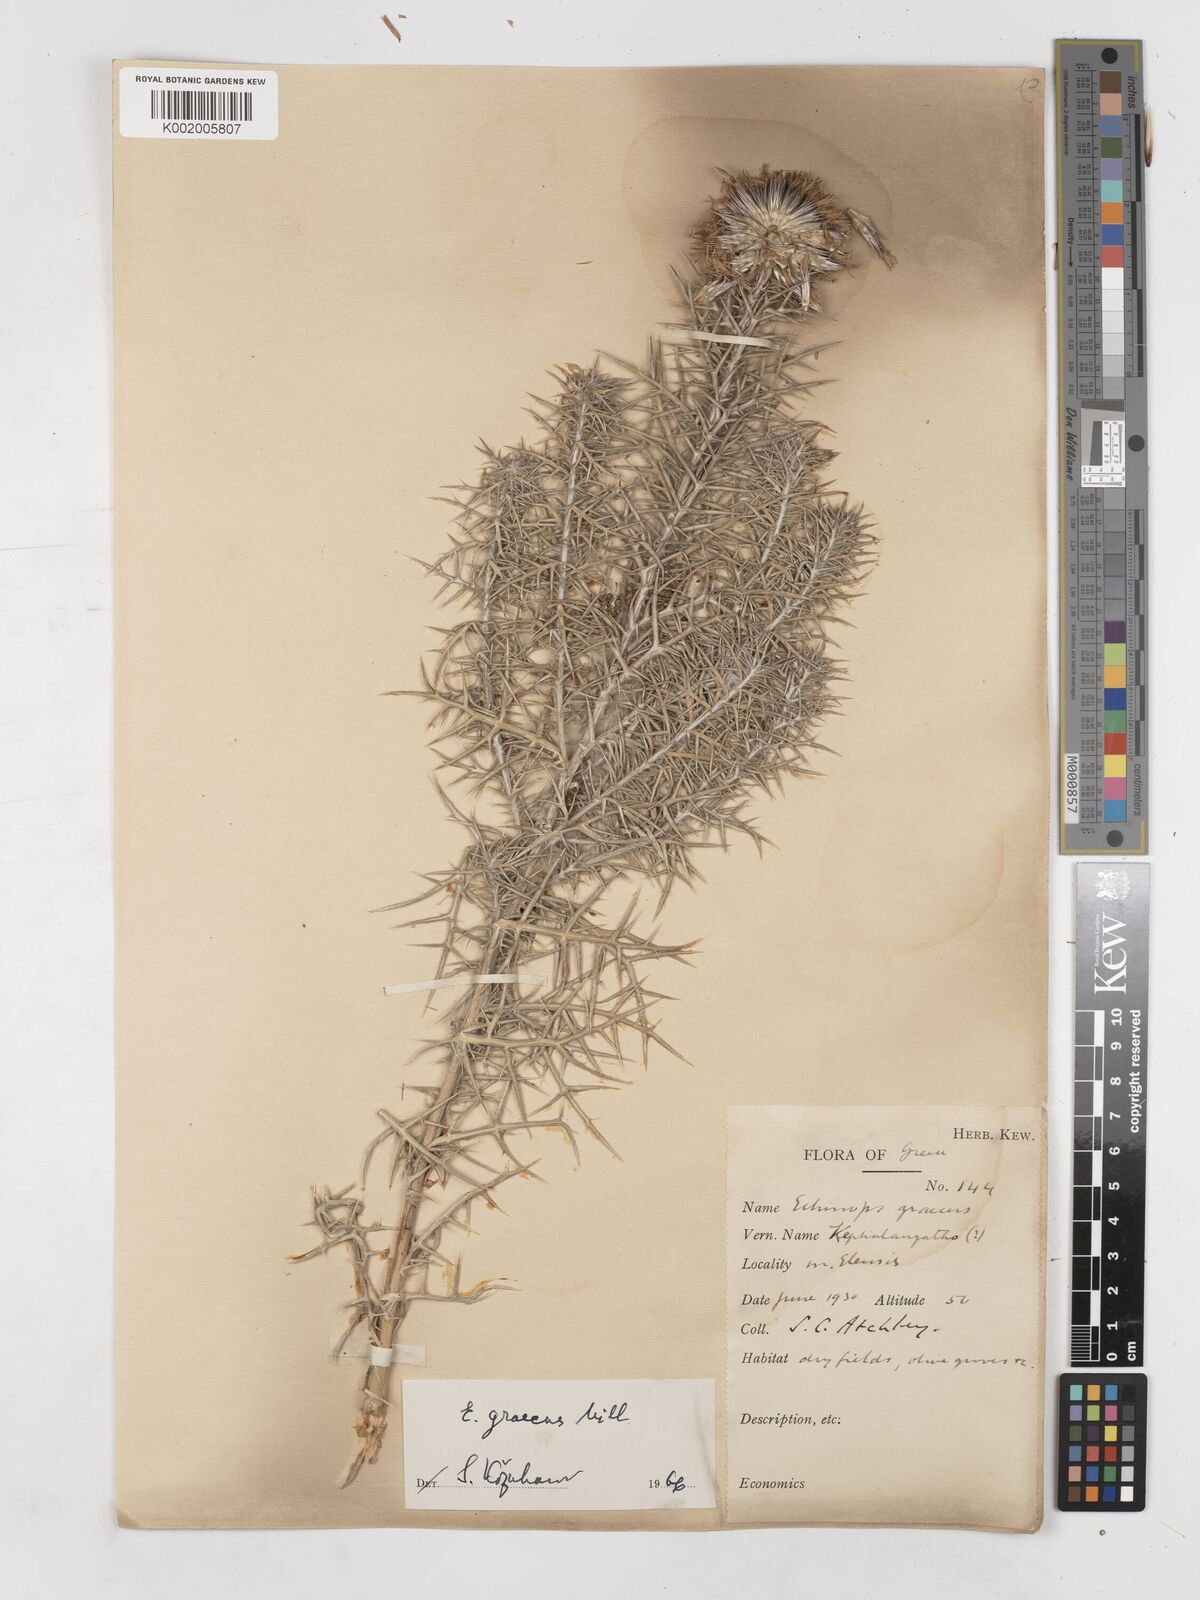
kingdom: Plantae
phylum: Tracheophyta
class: Magnoliopsida
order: Asterales
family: Asteraceae
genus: Echinops
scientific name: Echinops graecus
